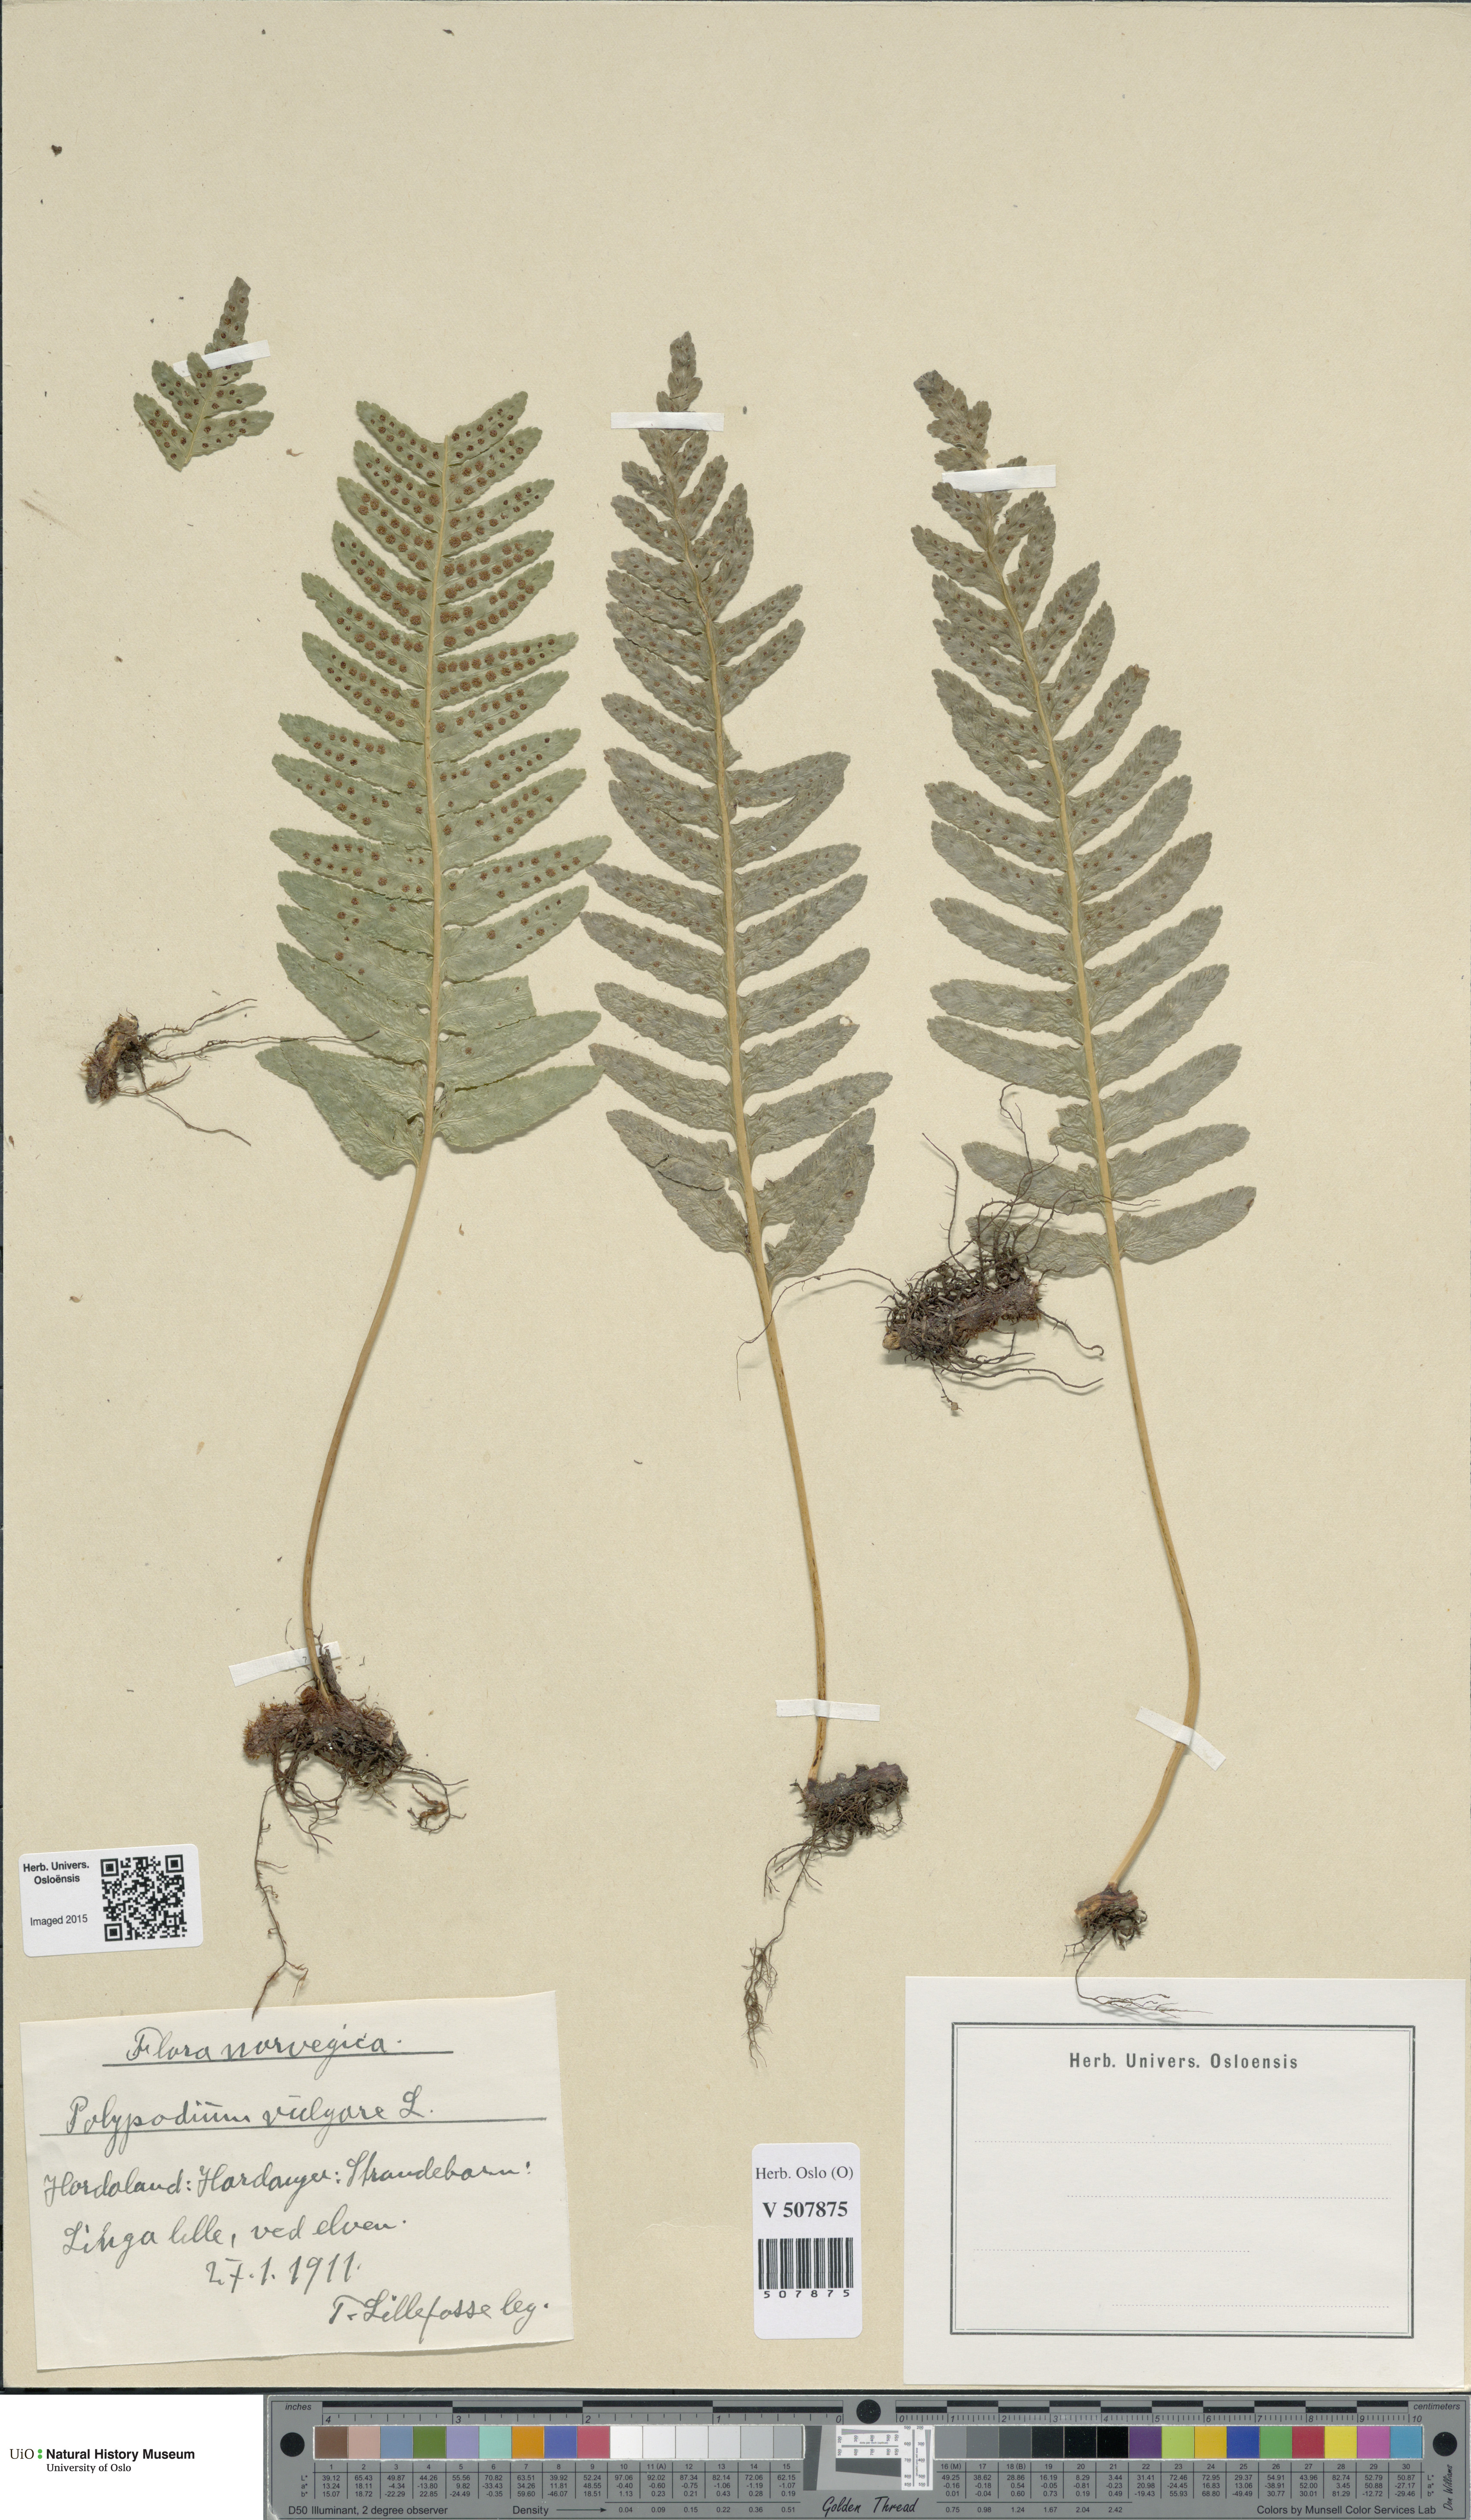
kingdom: Plantae
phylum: Tracheophyta
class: Polypodiopsida
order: Polypodiales
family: Polypodiaceae
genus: Polypodium
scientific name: Polypodium vulgare
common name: Common polypody
